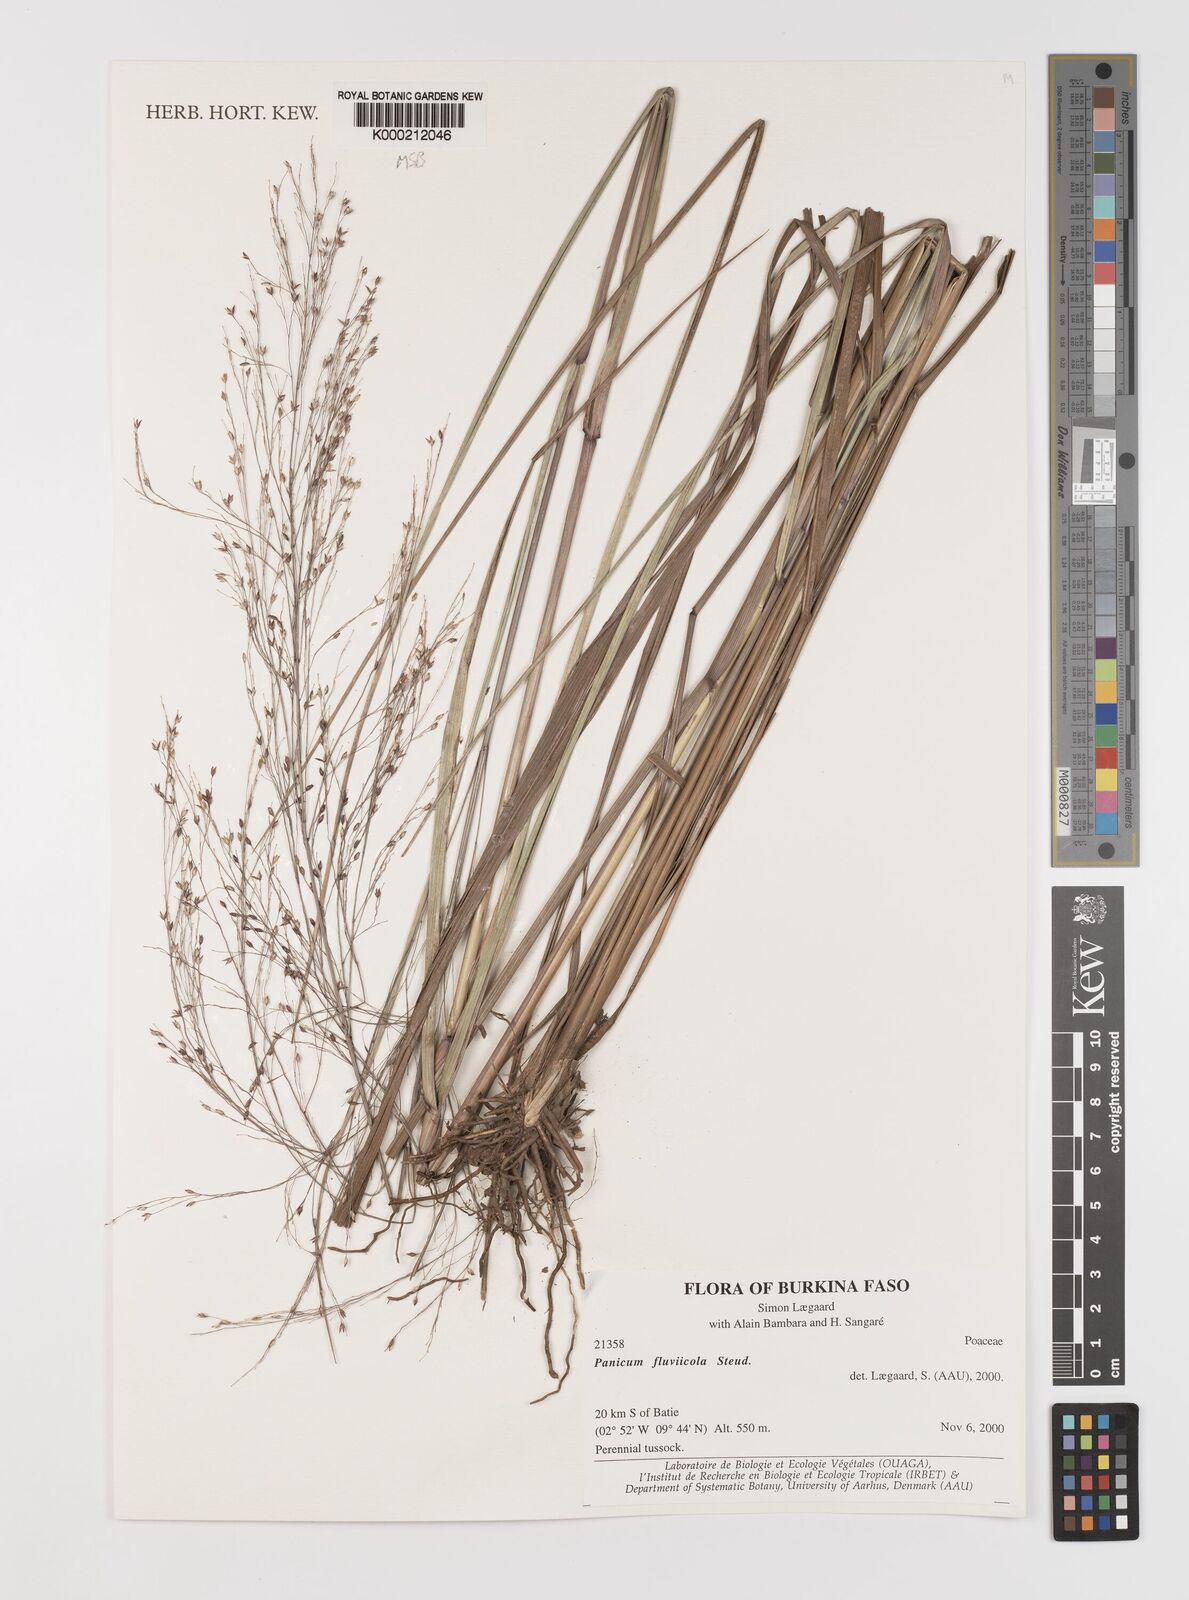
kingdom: Plantae
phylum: Tracheophyta
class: Liliopsida
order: Poales
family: Poaceae
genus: Panicum
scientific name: Panicum fluviicola
